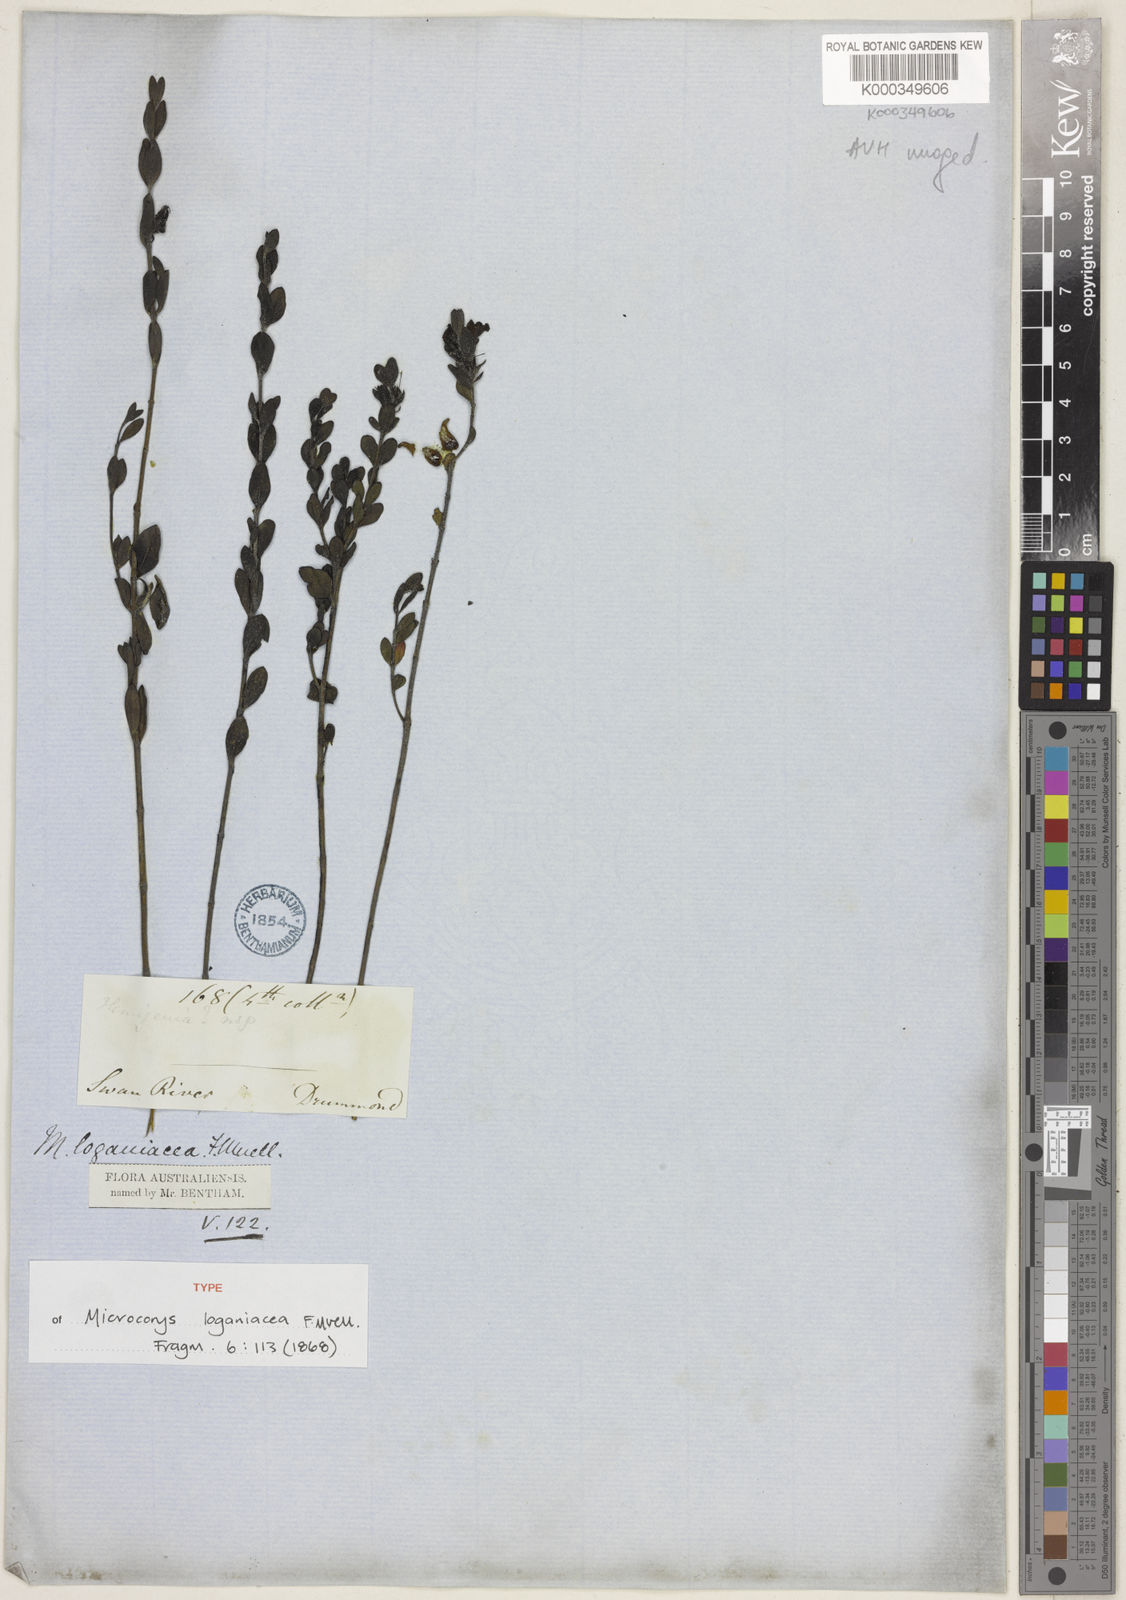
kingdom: Plantae
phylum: Tracheophyta
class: Magnoliopsida
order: Lamiales
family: Lamiaceae
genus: Hemigenia
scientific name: Hemigenia loganiacea
